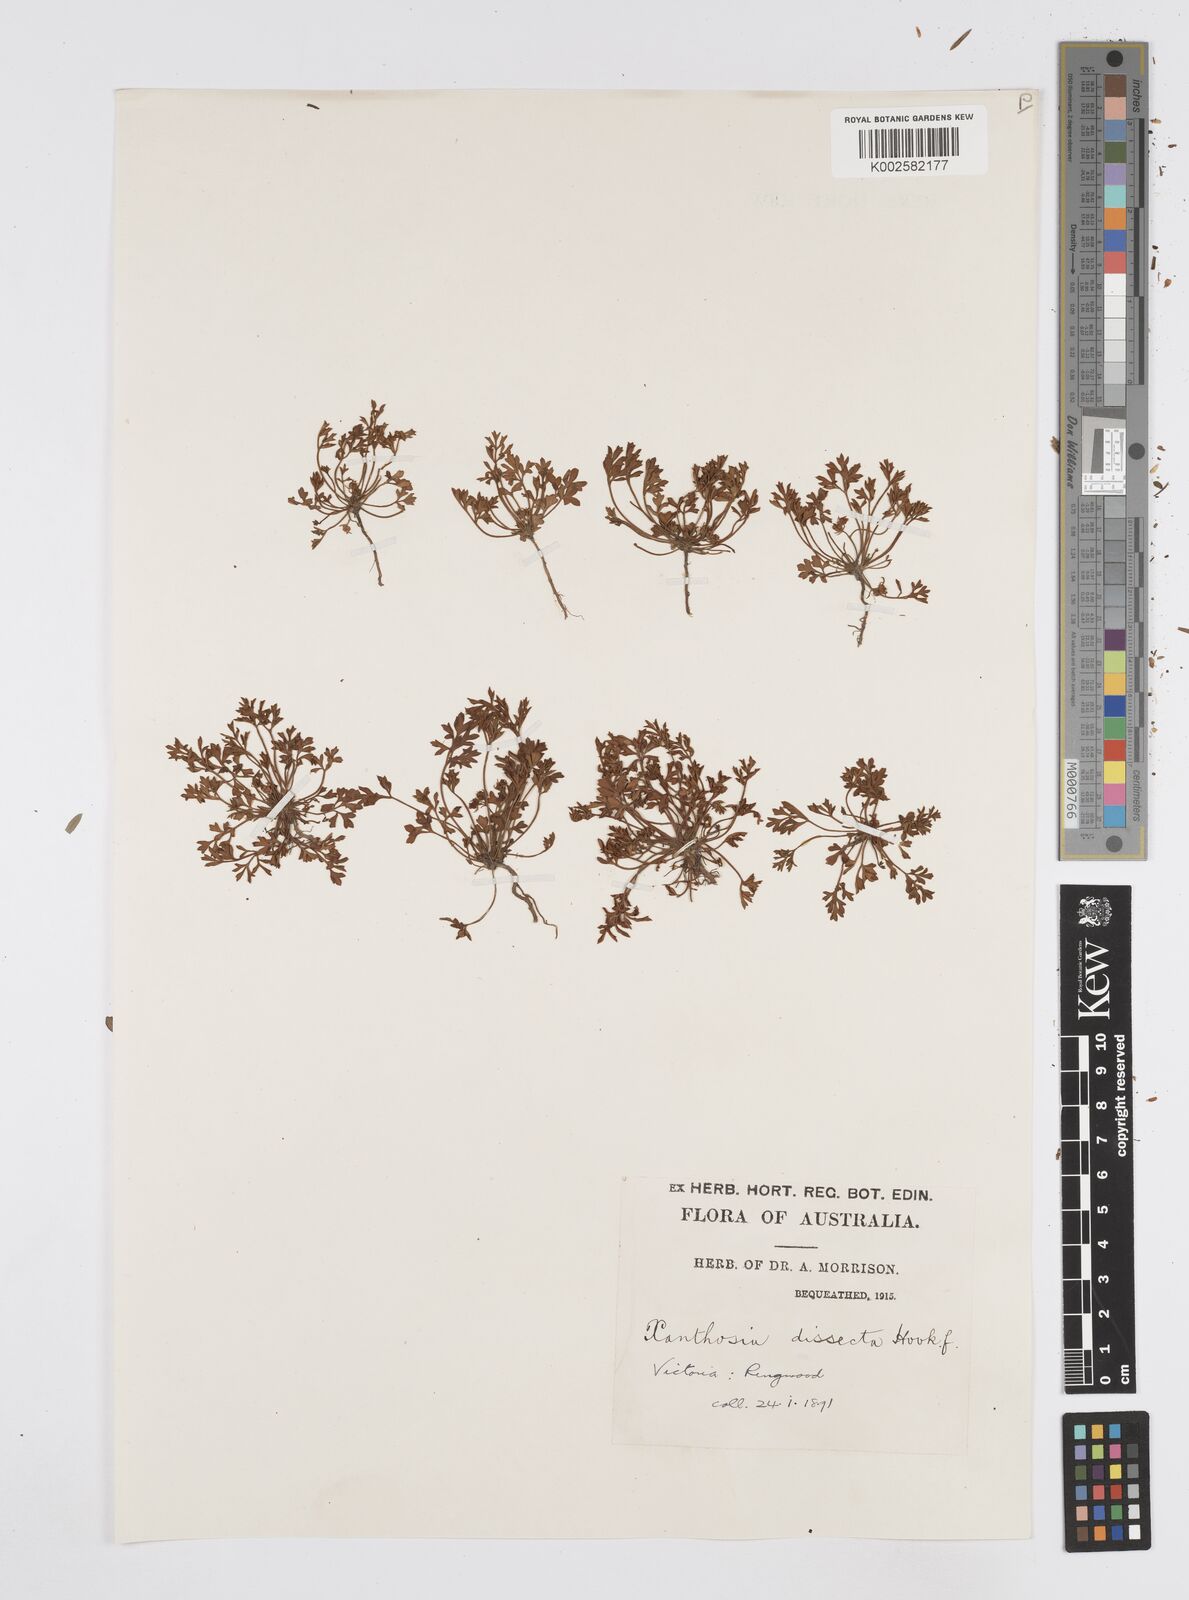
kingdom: Plantae
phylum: Tracheophyta
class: Magnoliopsida
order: Apiales
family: Apiaceae
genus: Xanthosia
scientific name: Xanthosia dissecta
